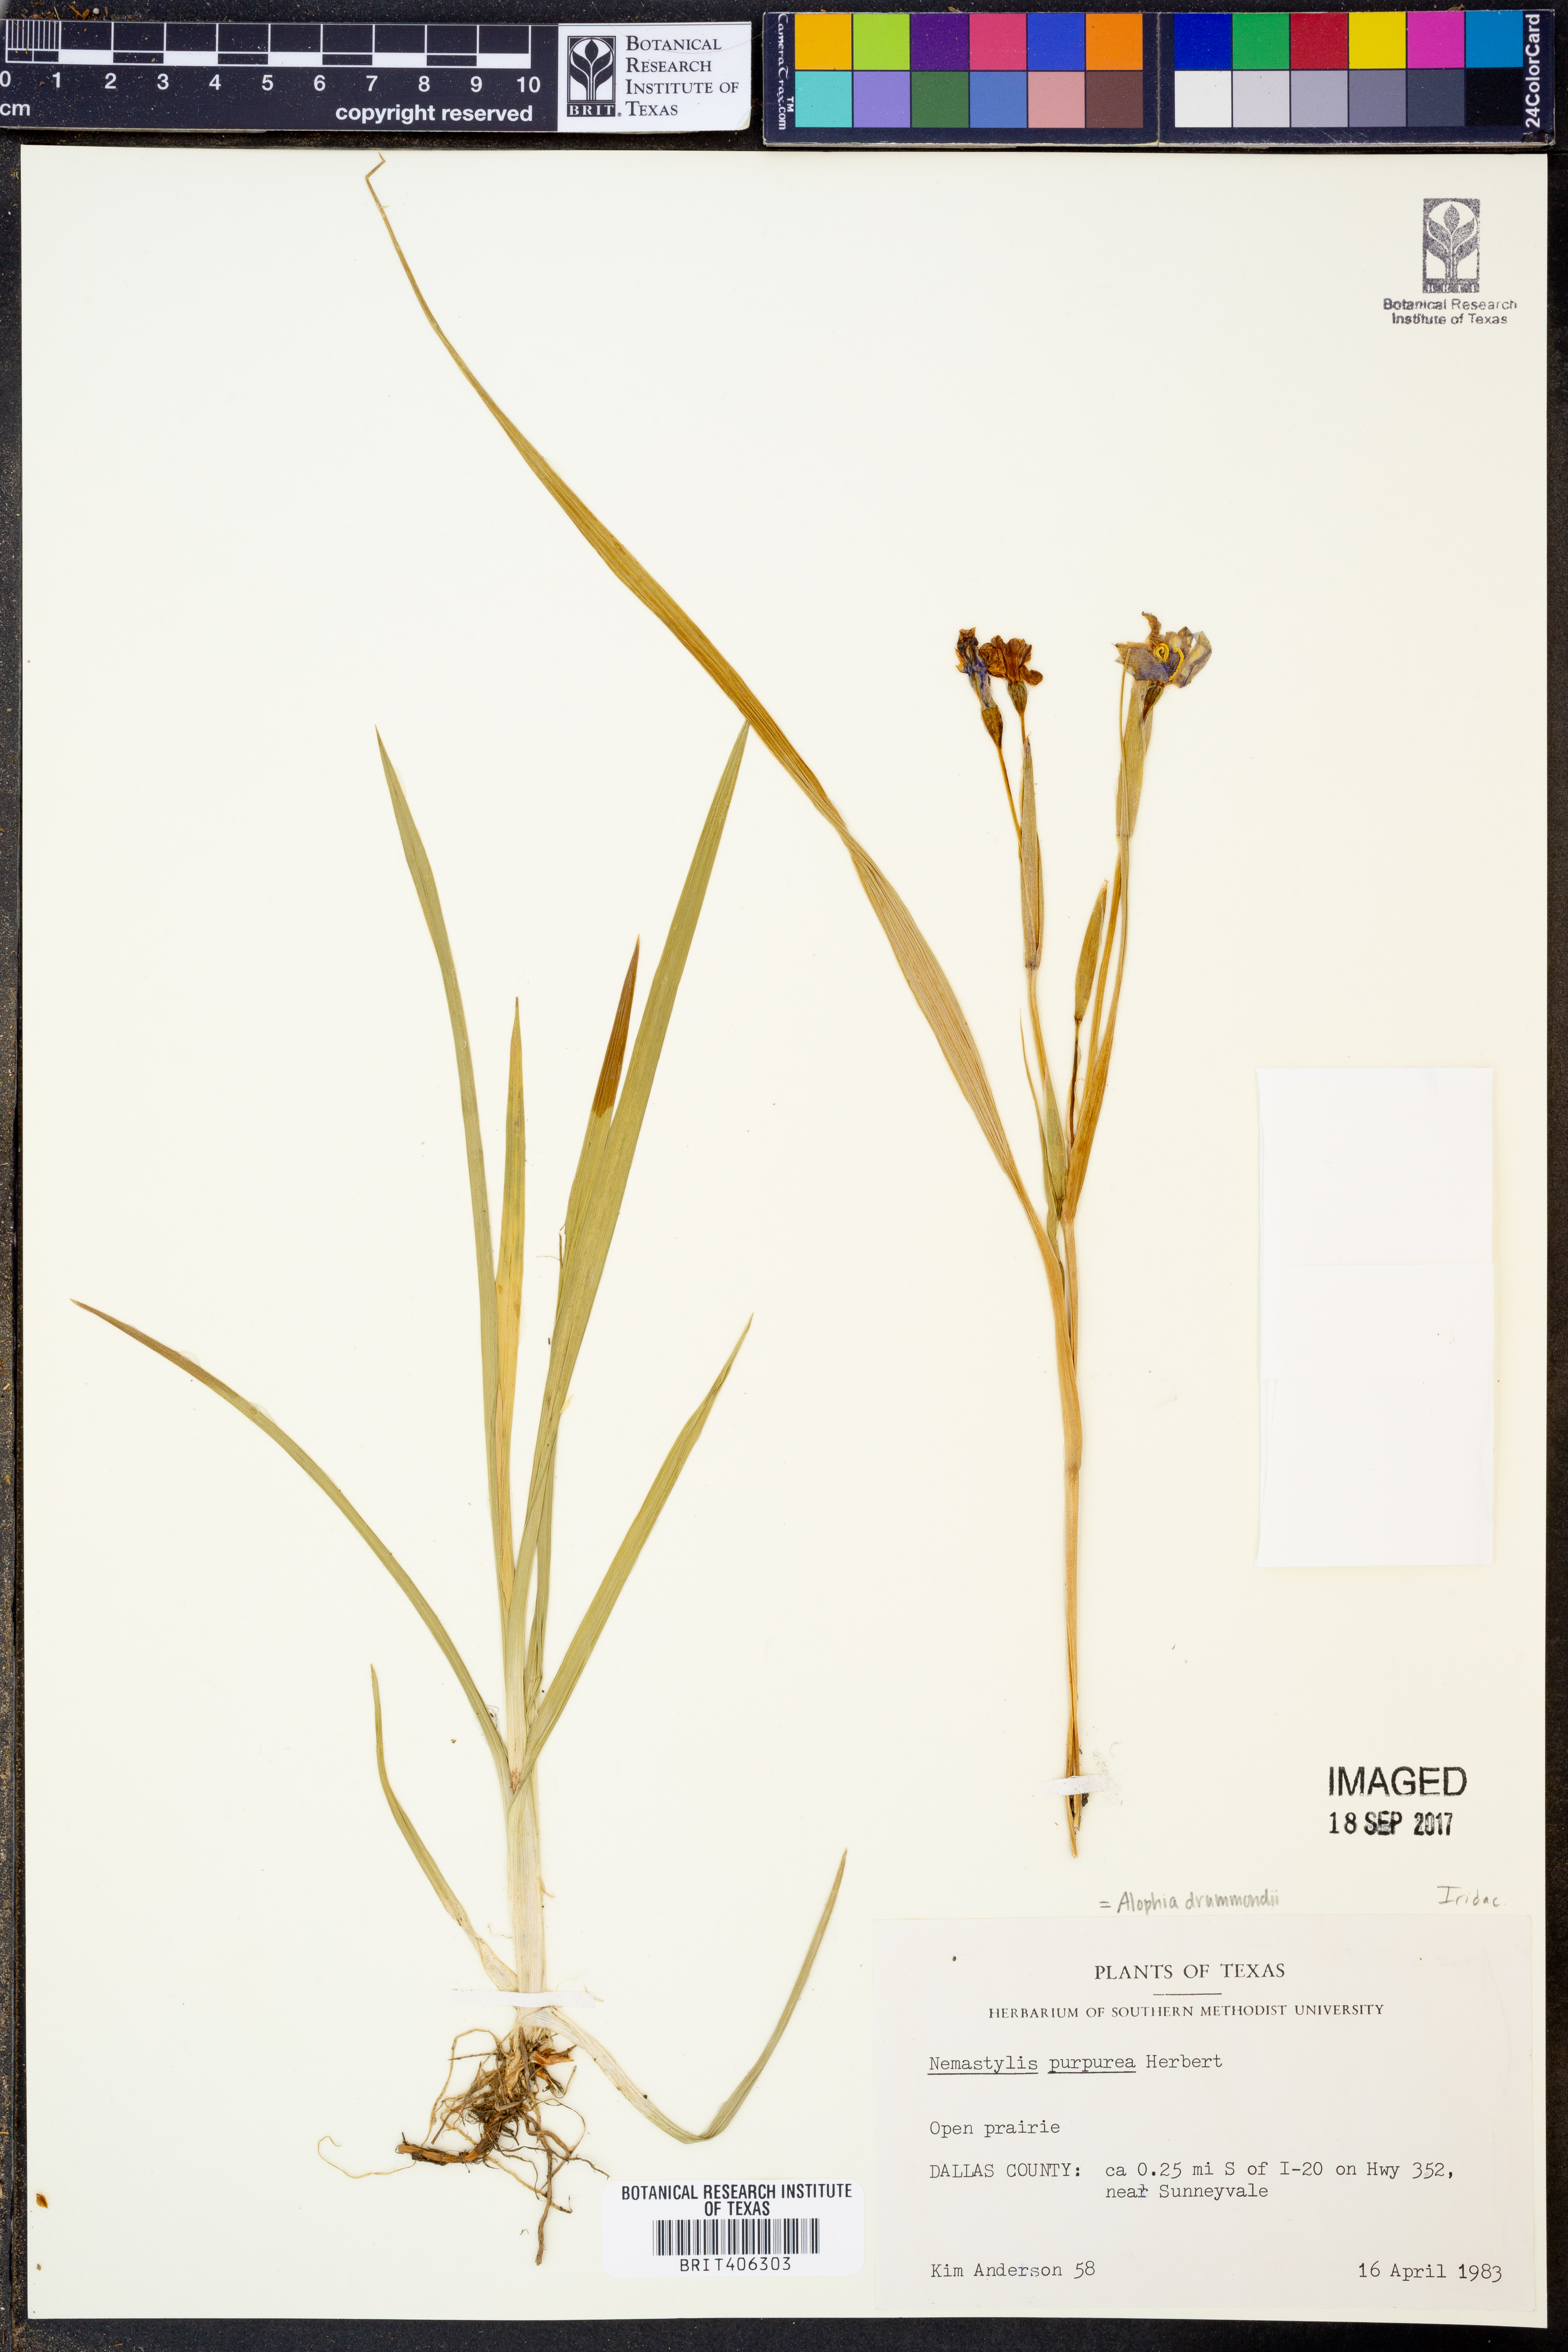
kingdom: Plantae
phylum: Tracheophyta
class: Liliopsida
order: Asparagales
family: Iridaceae
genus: Alophia
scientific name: Alophia drummondii
